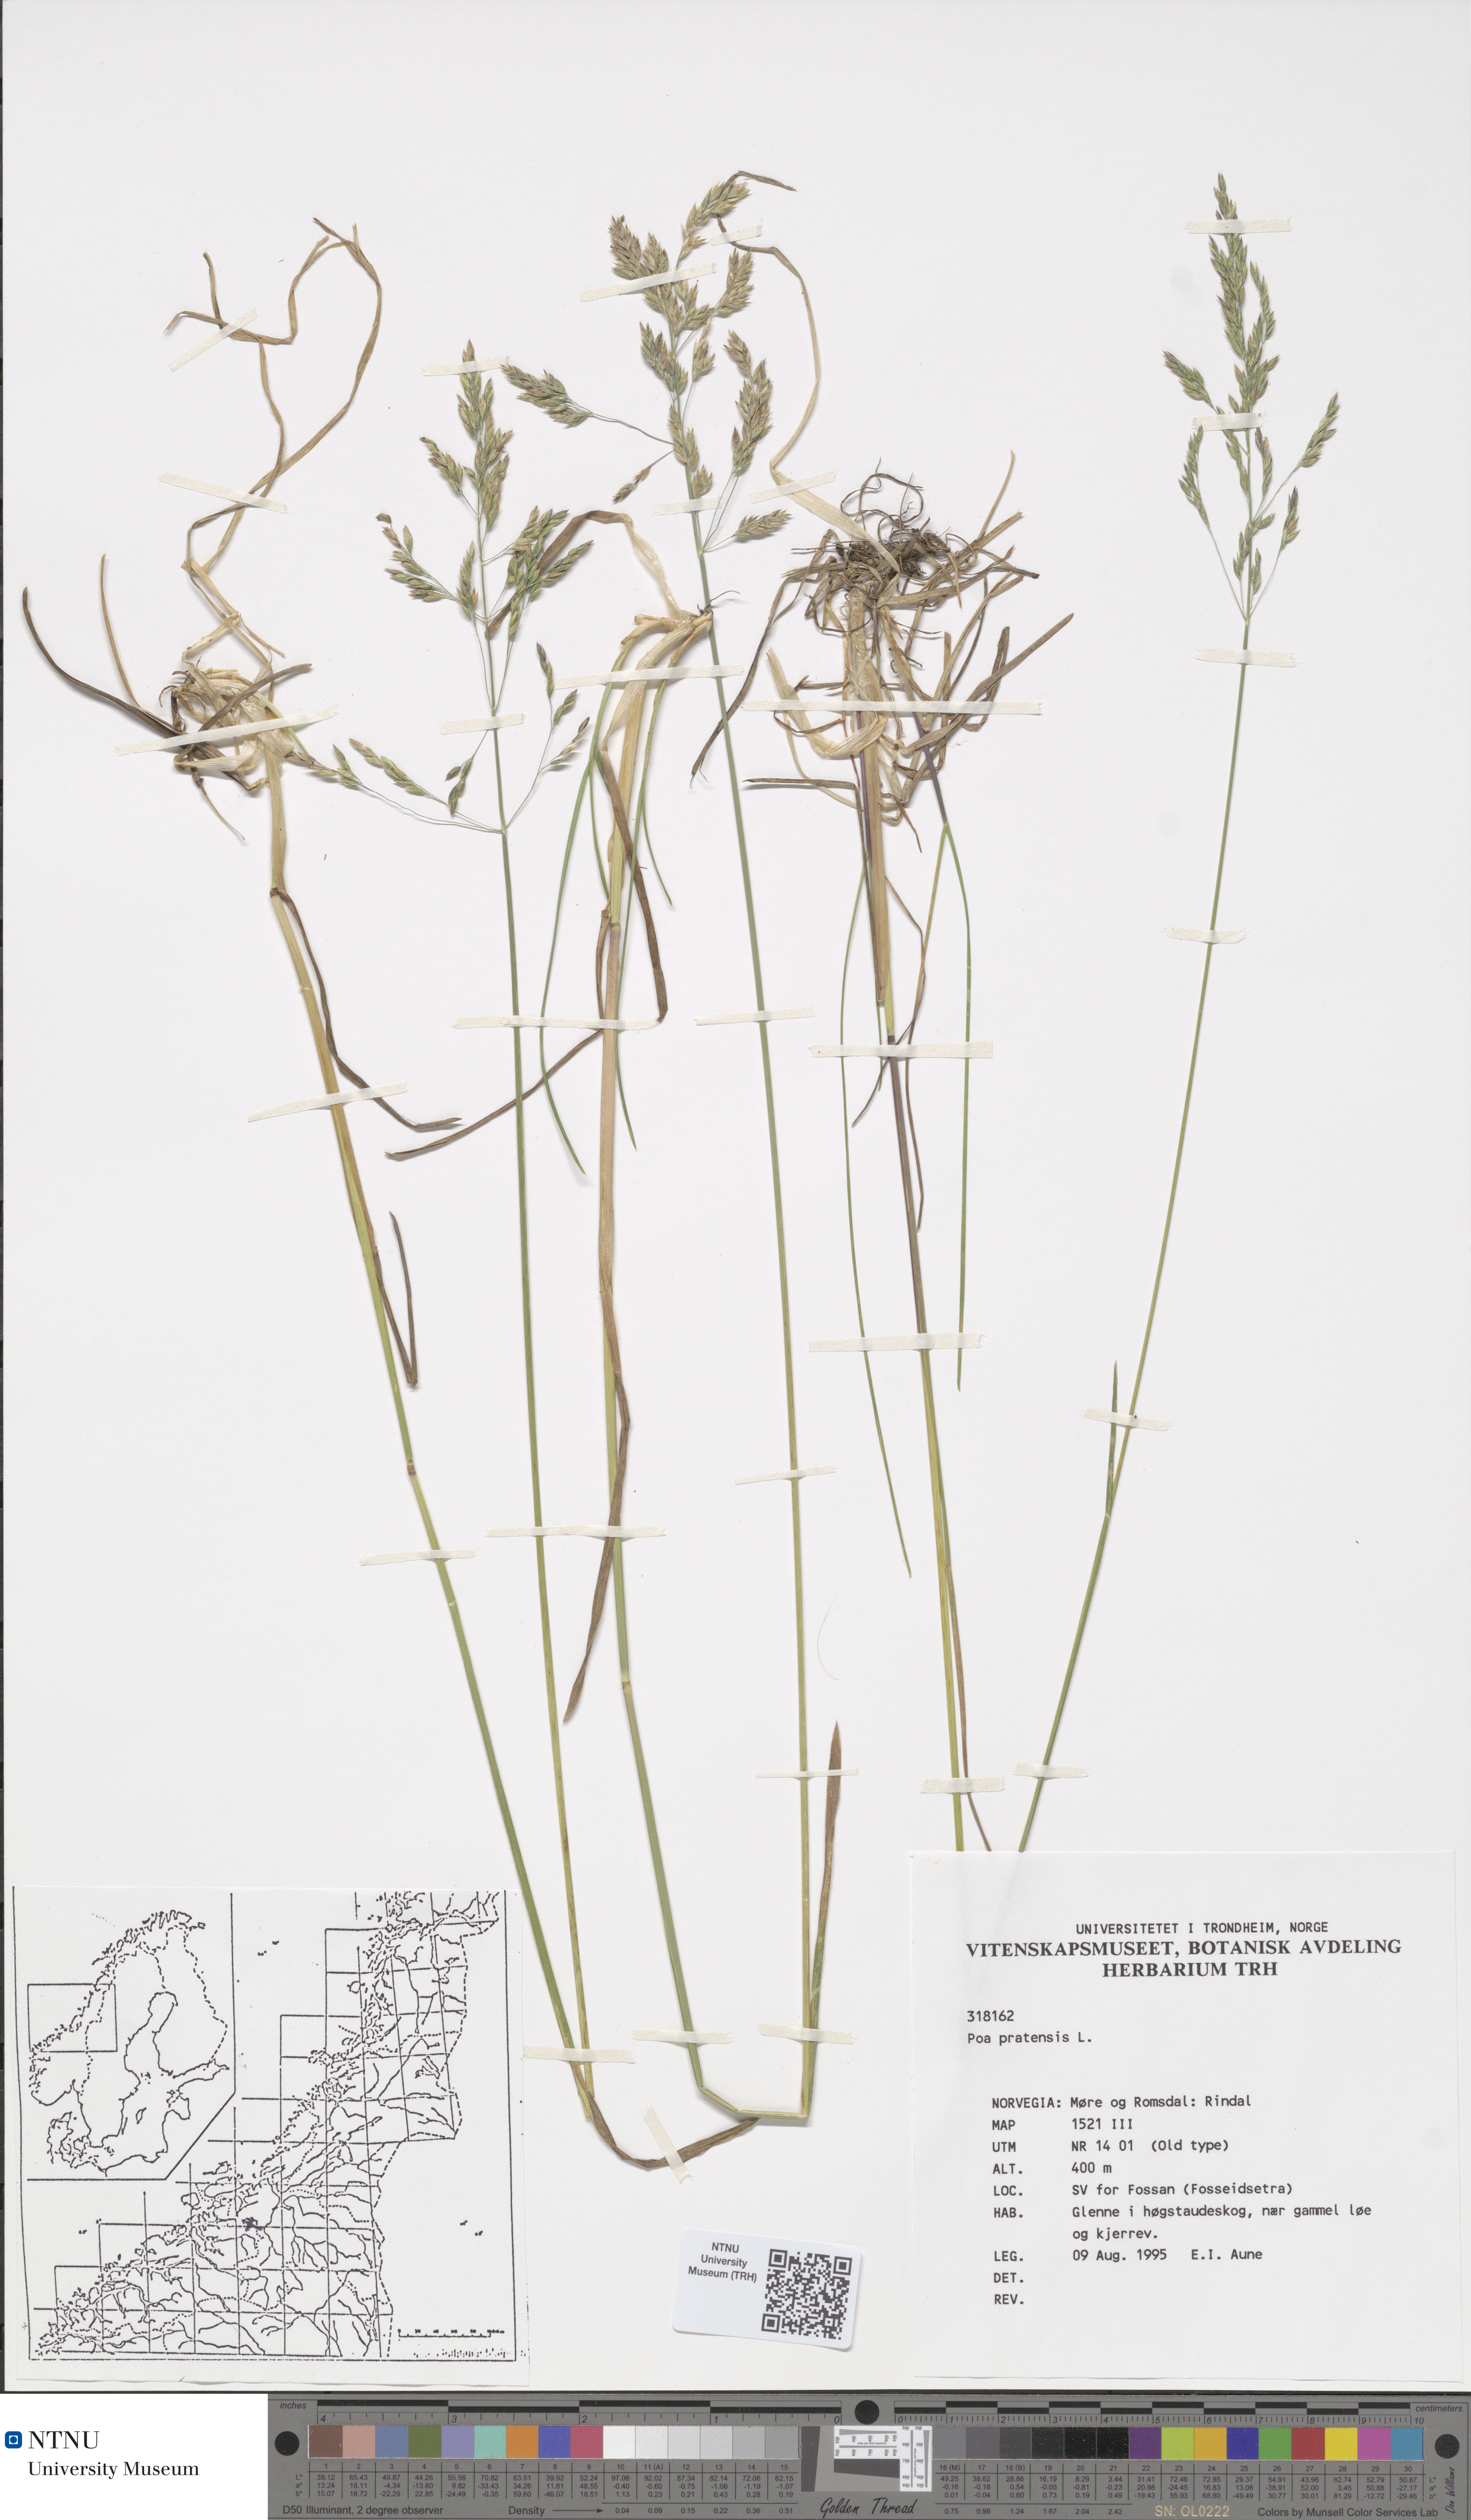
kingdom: Plantae
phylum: Tracheophyta
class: Liliopsida
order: Poales
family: Poaceae
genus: Poa
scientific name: Poa pratensis
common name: Kentucky bluegrass
